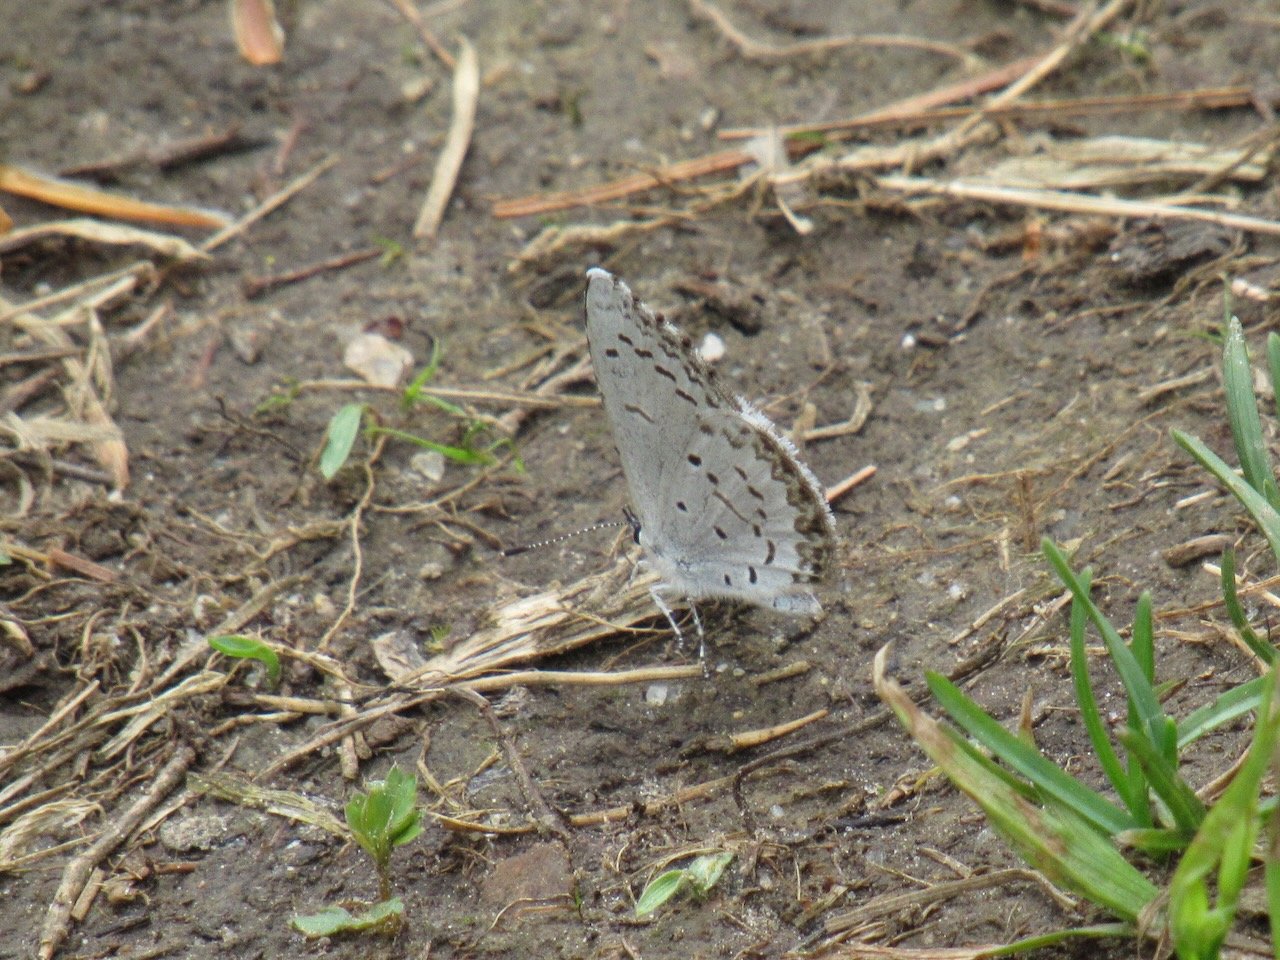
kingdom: Animalia
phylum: Arthropoda
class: Insecta
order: Lepidoptera
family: Lycaenidae
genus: Celastrina
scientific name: Celastrina lucia
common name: Northern Spring Azure
